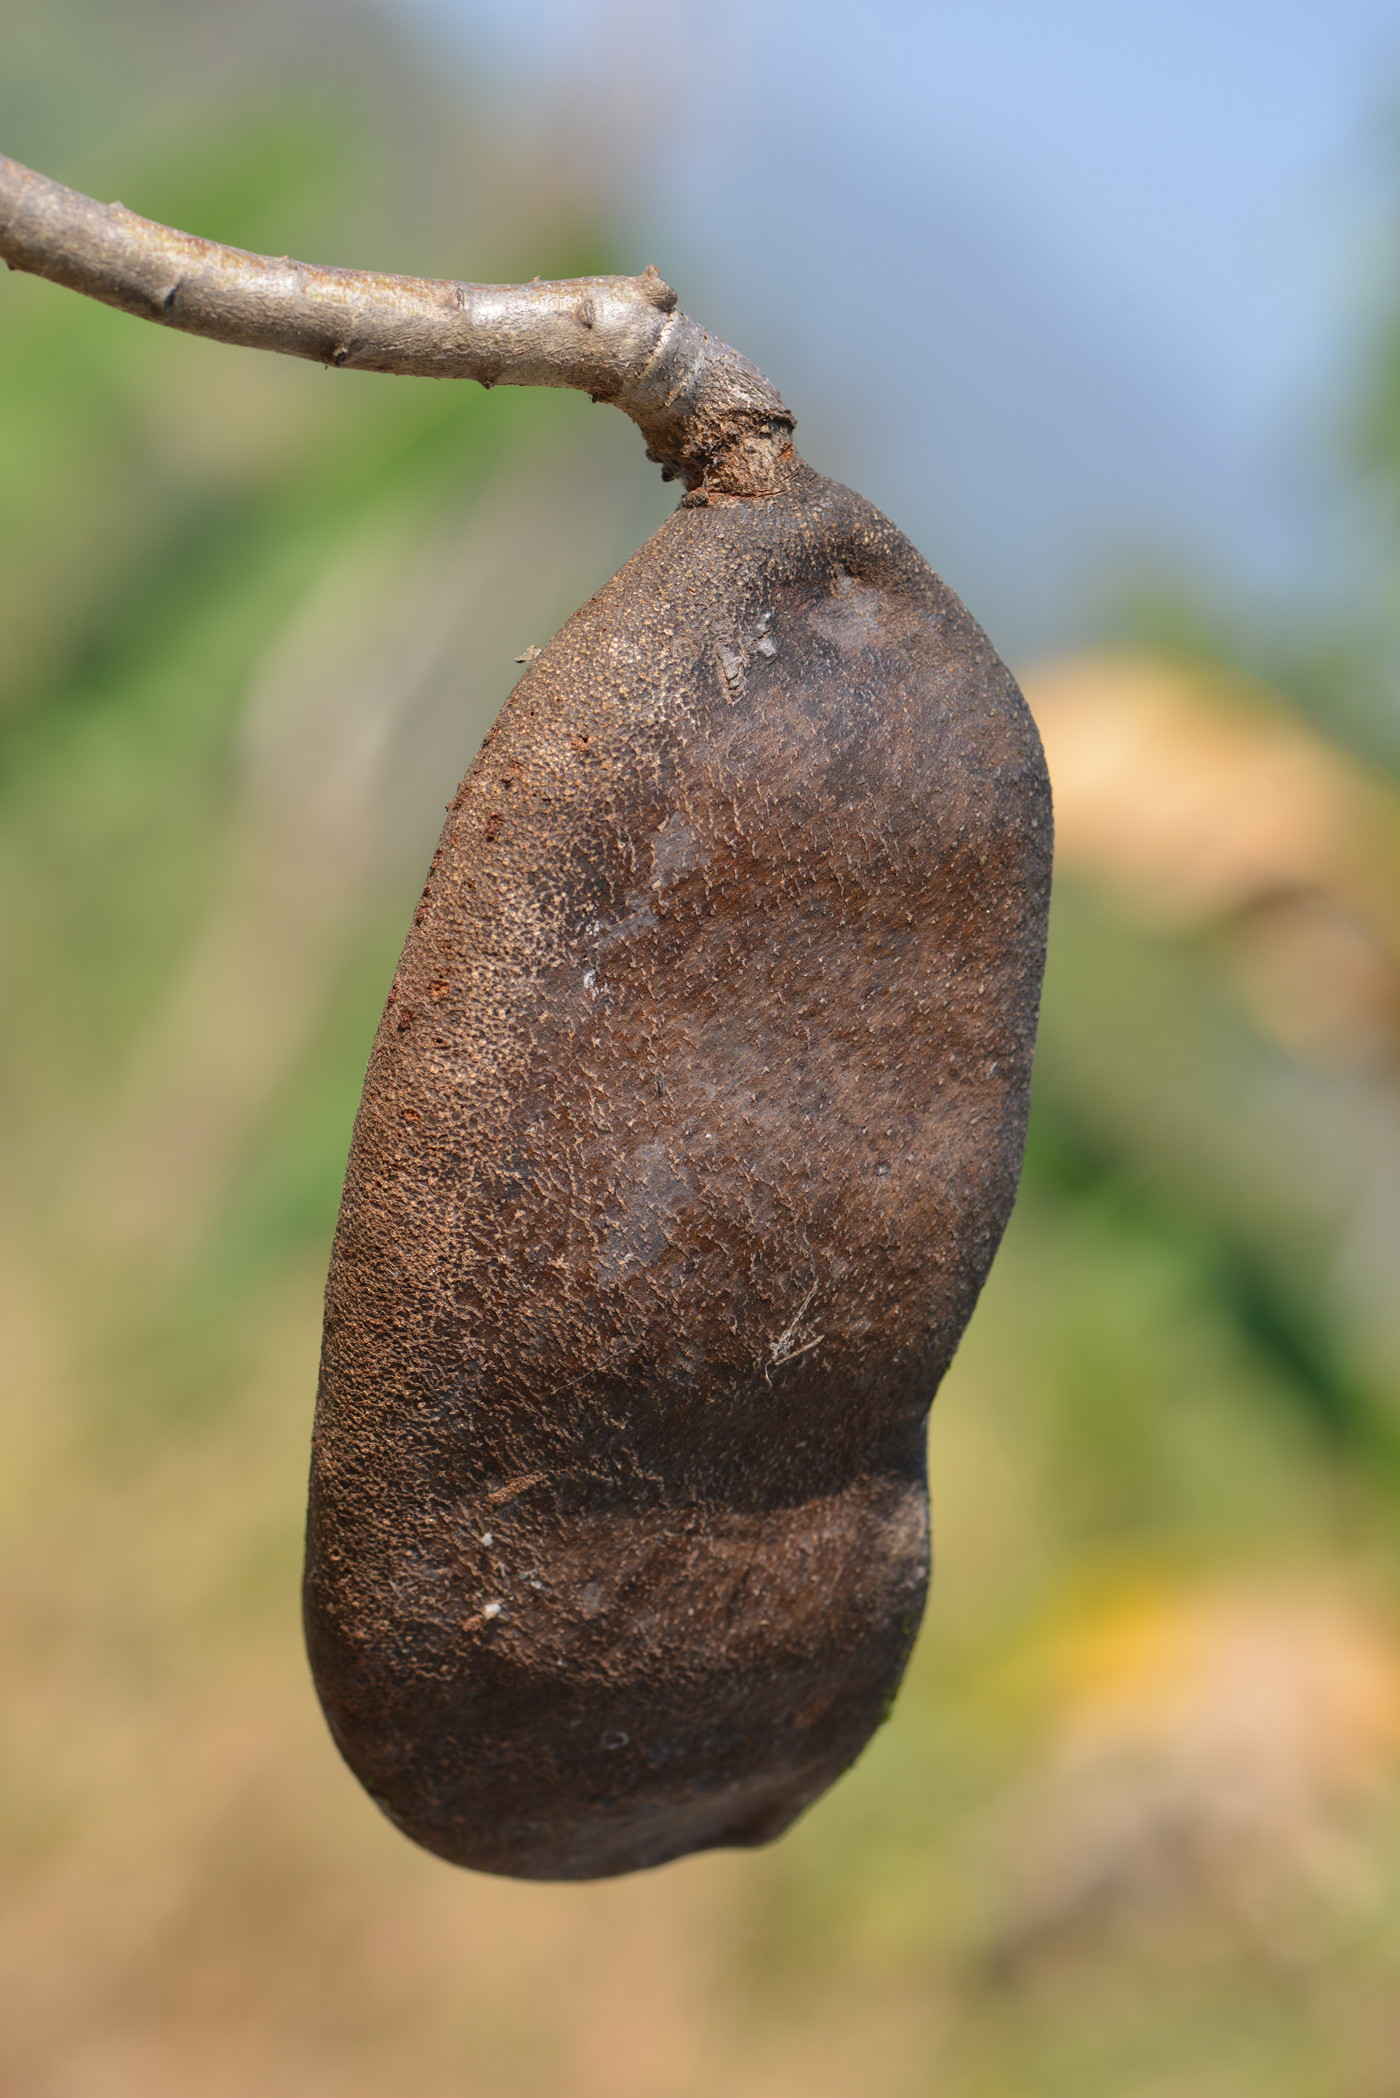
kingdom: Plantae
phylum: Tracheophyta
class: Magnoliopsida
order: Fabales
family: Fabaceae
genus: Afzelia
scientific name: Afzelia xylocarpa
